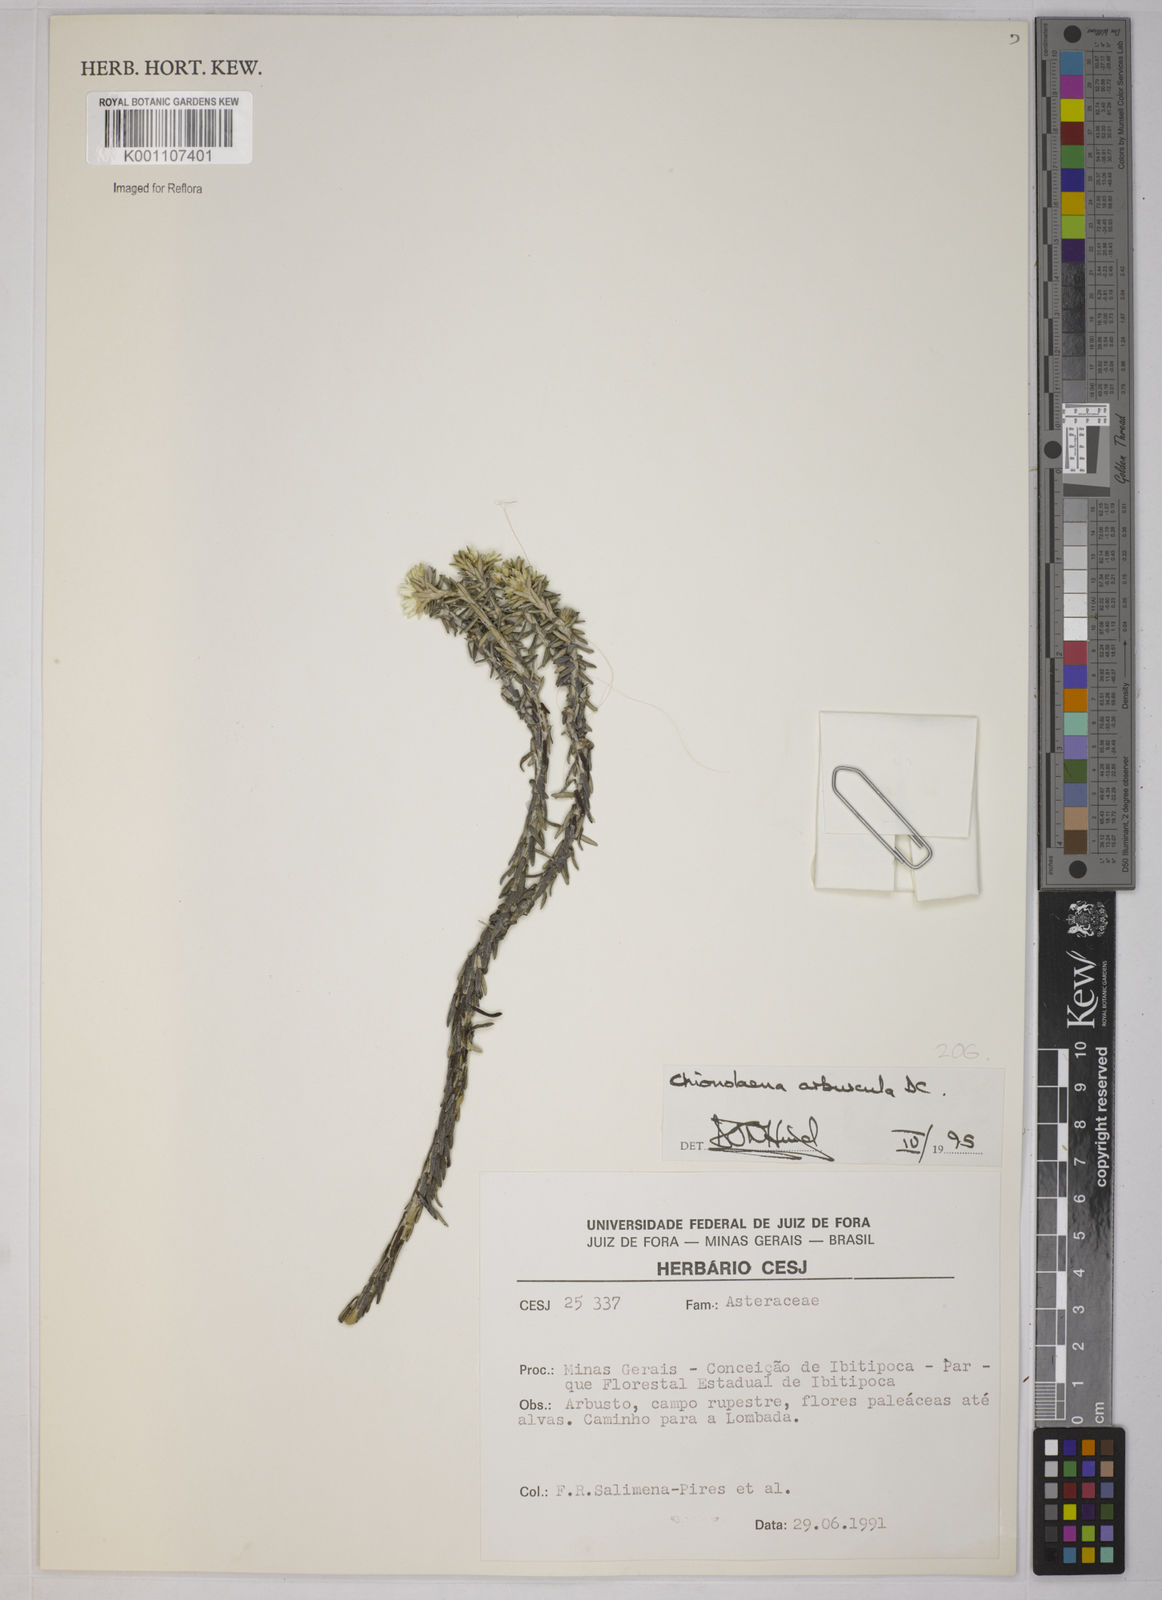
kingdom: Plantae
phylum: Tracheophyta
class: Magnoliopsida
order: Asterales
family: Asteraceae
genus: Chionolaena
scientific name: Chionolaena arbuscula
